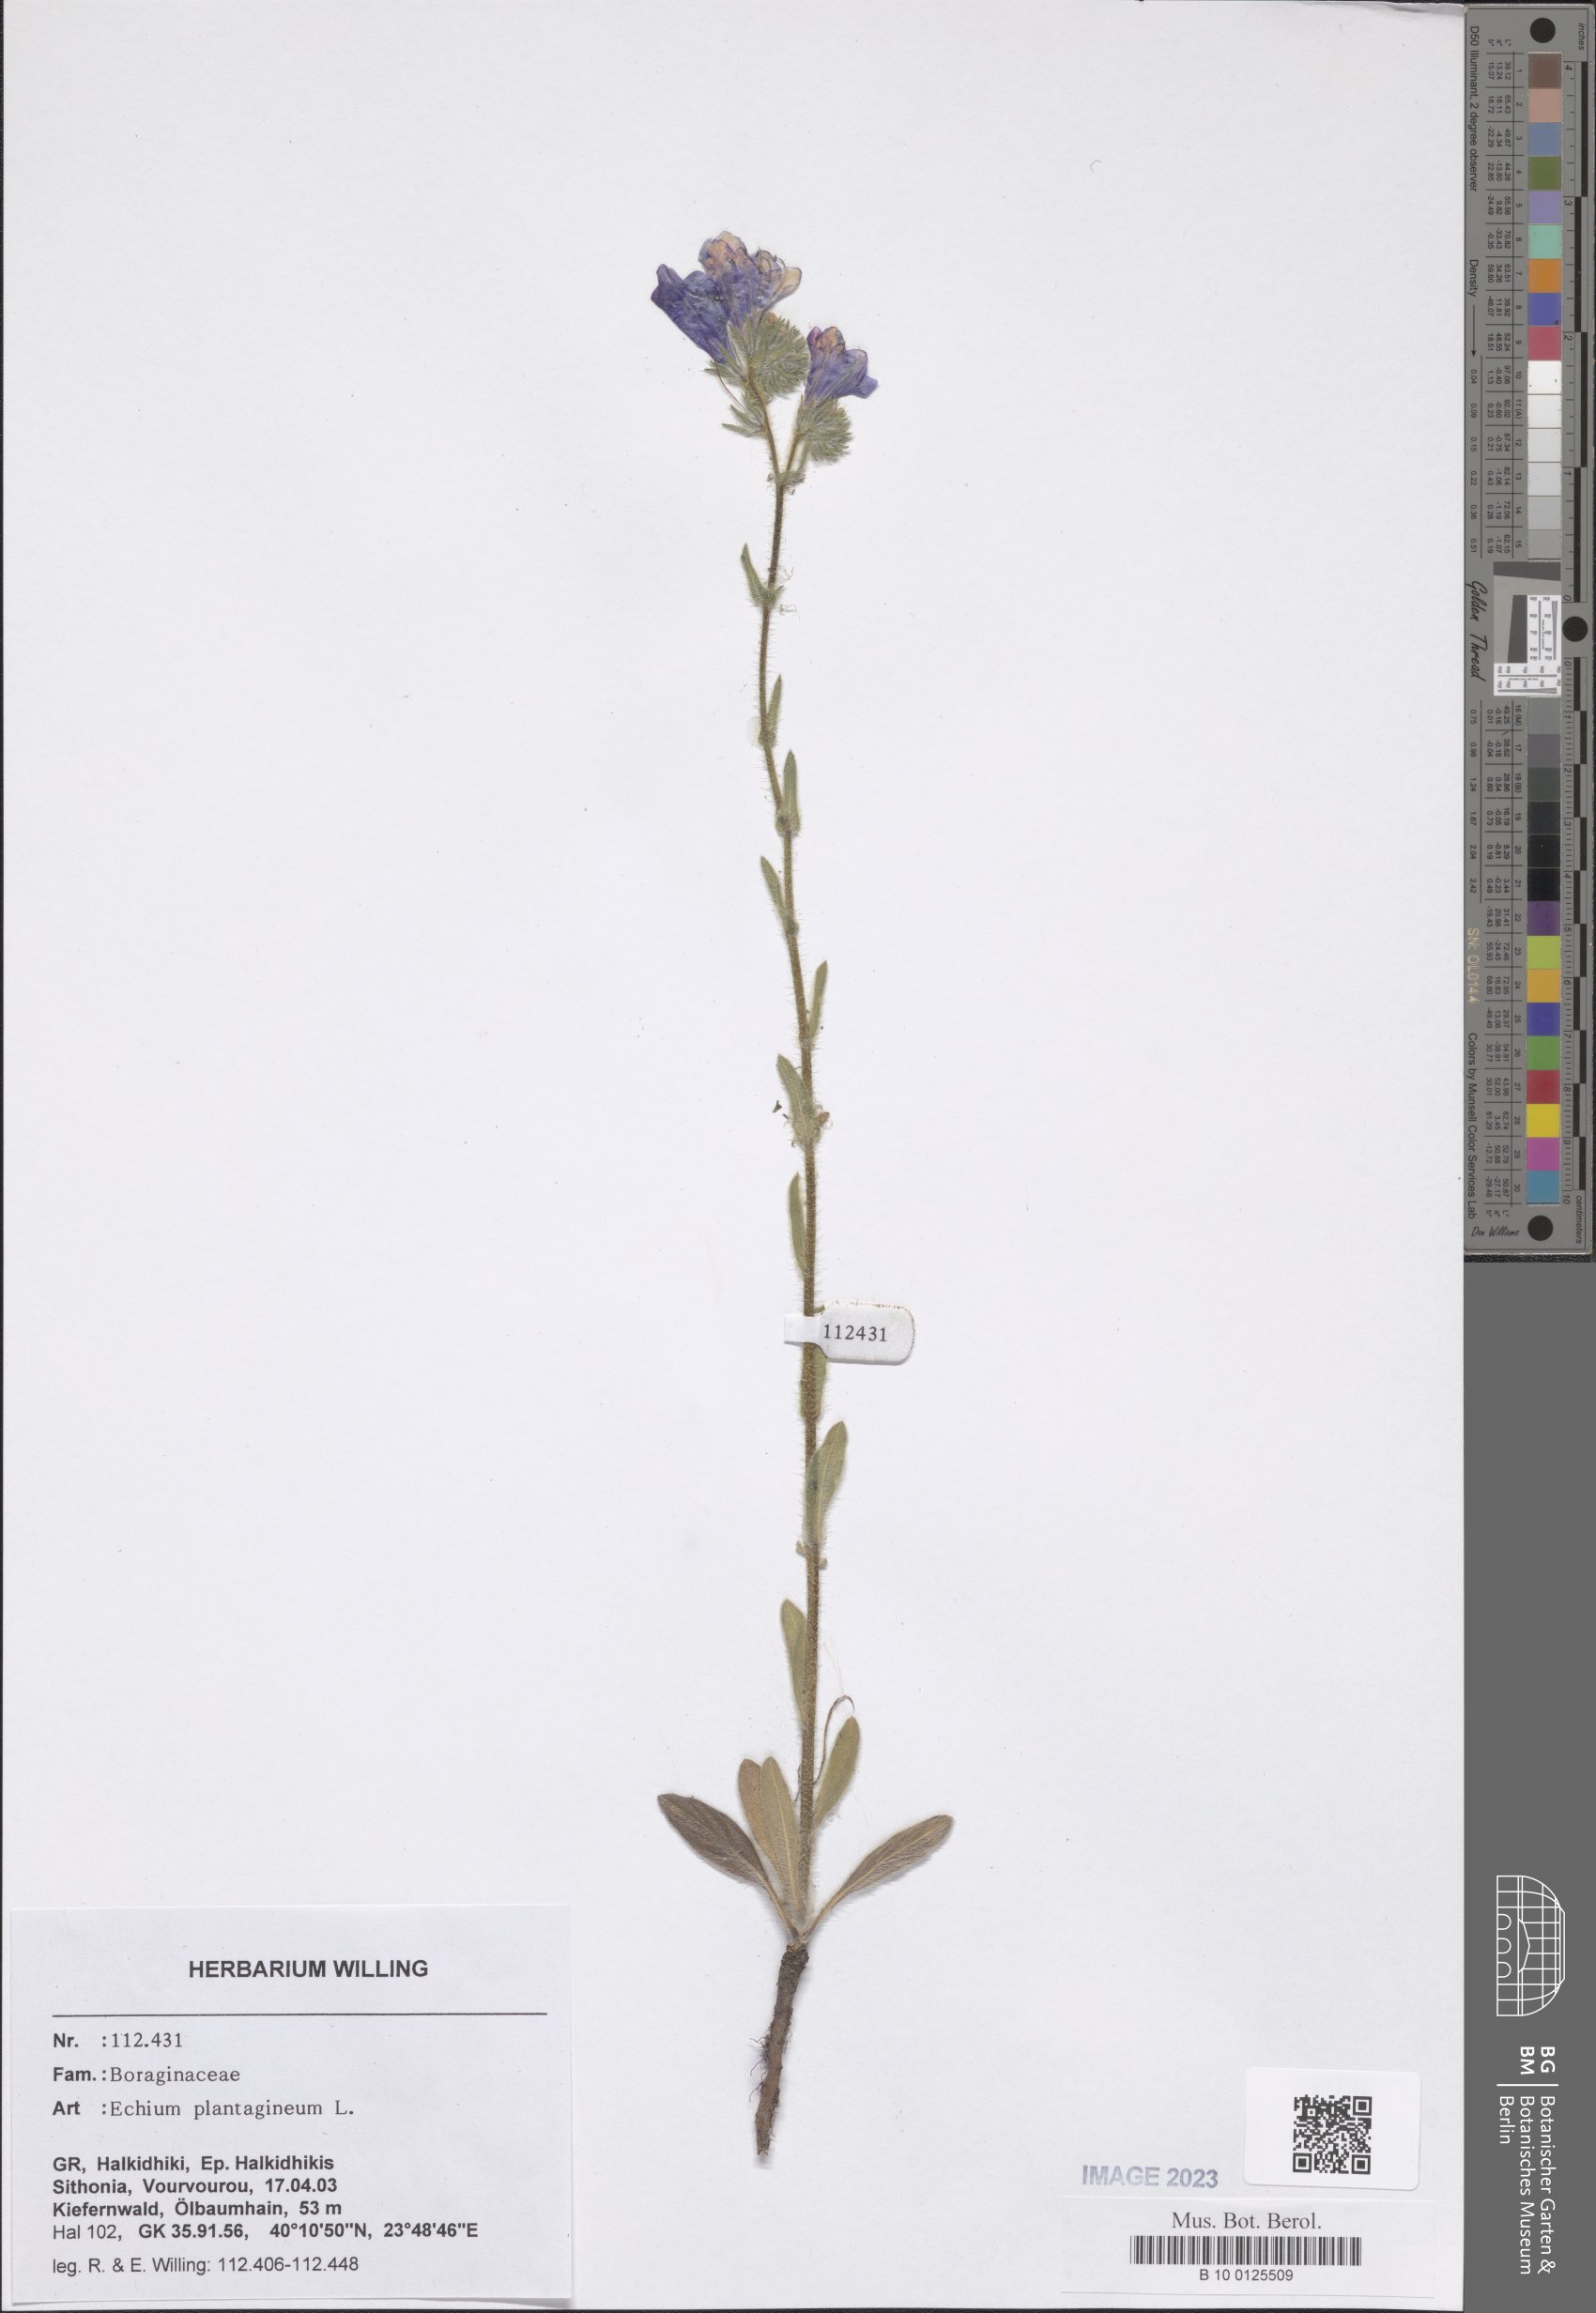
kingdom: Plantae
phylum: Tracheophyta
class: Magnoliopsida
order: Boraginales
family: Boraginaceae
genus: Echium
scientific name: Echium plantagineum
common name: Purple viper's-bugloss
